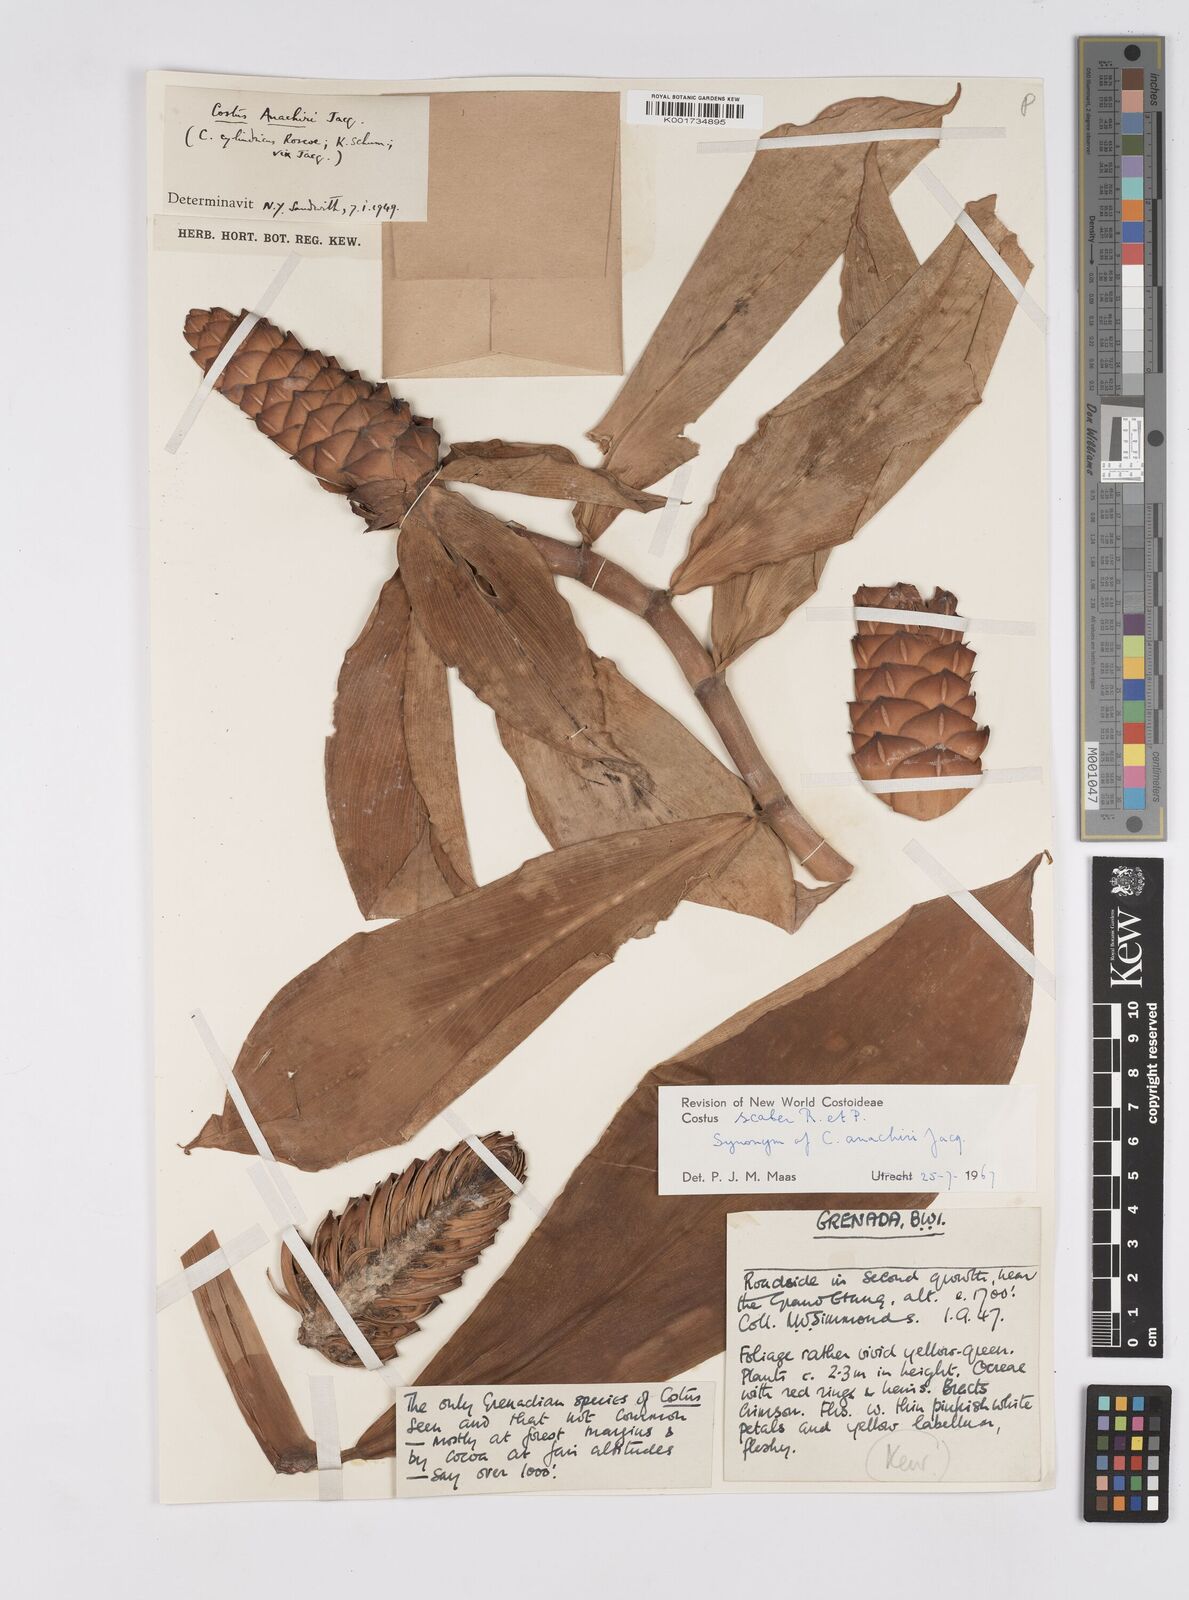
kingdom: Plantae
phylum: Tracheophyta
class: Liliopsida
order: Zingiberales
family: Costaceae
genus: Costus
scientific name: Costus scaber
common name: Spiral head ginger
